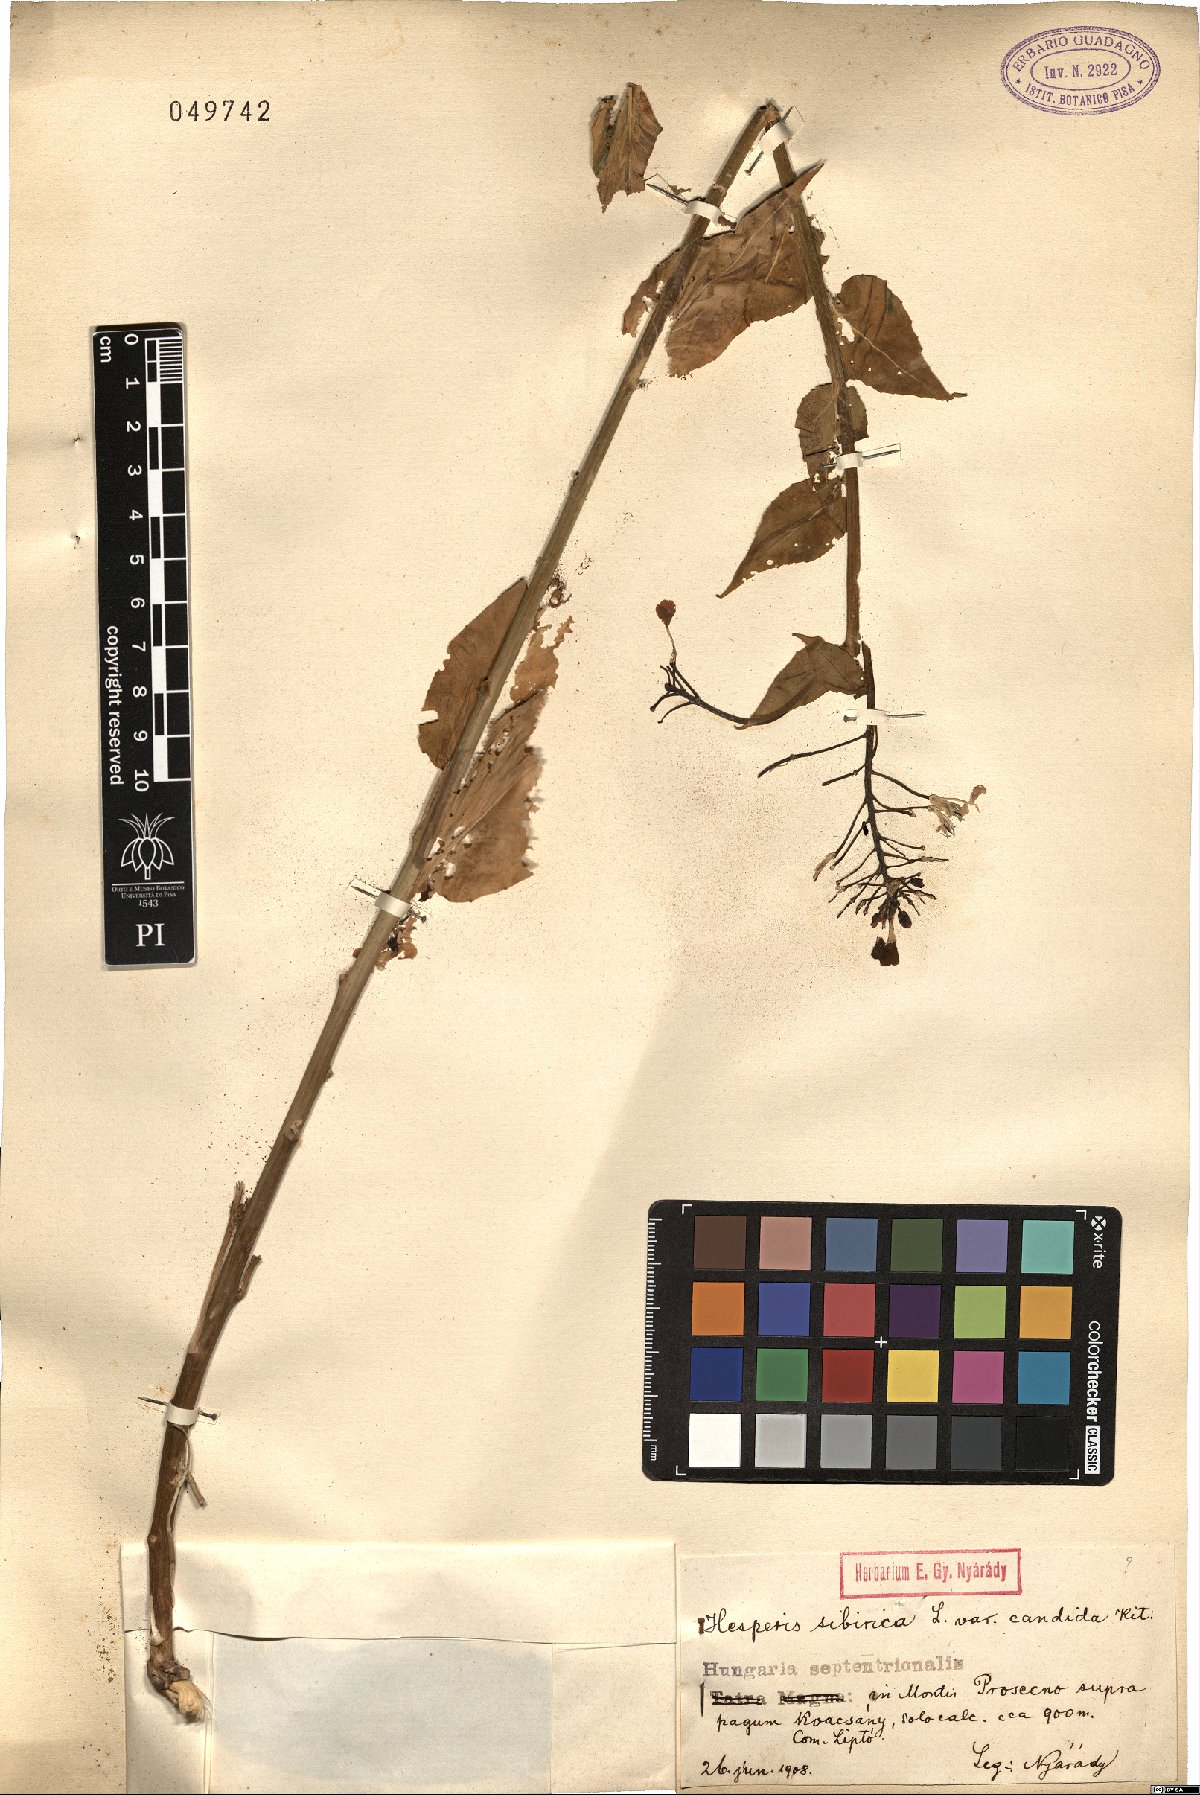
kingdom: Plantae
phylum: Tracheophyta
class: Magnoliopsida
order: Brassicales
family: Brassicaceae
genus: Hesperis
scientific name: Hesperis sibirica
